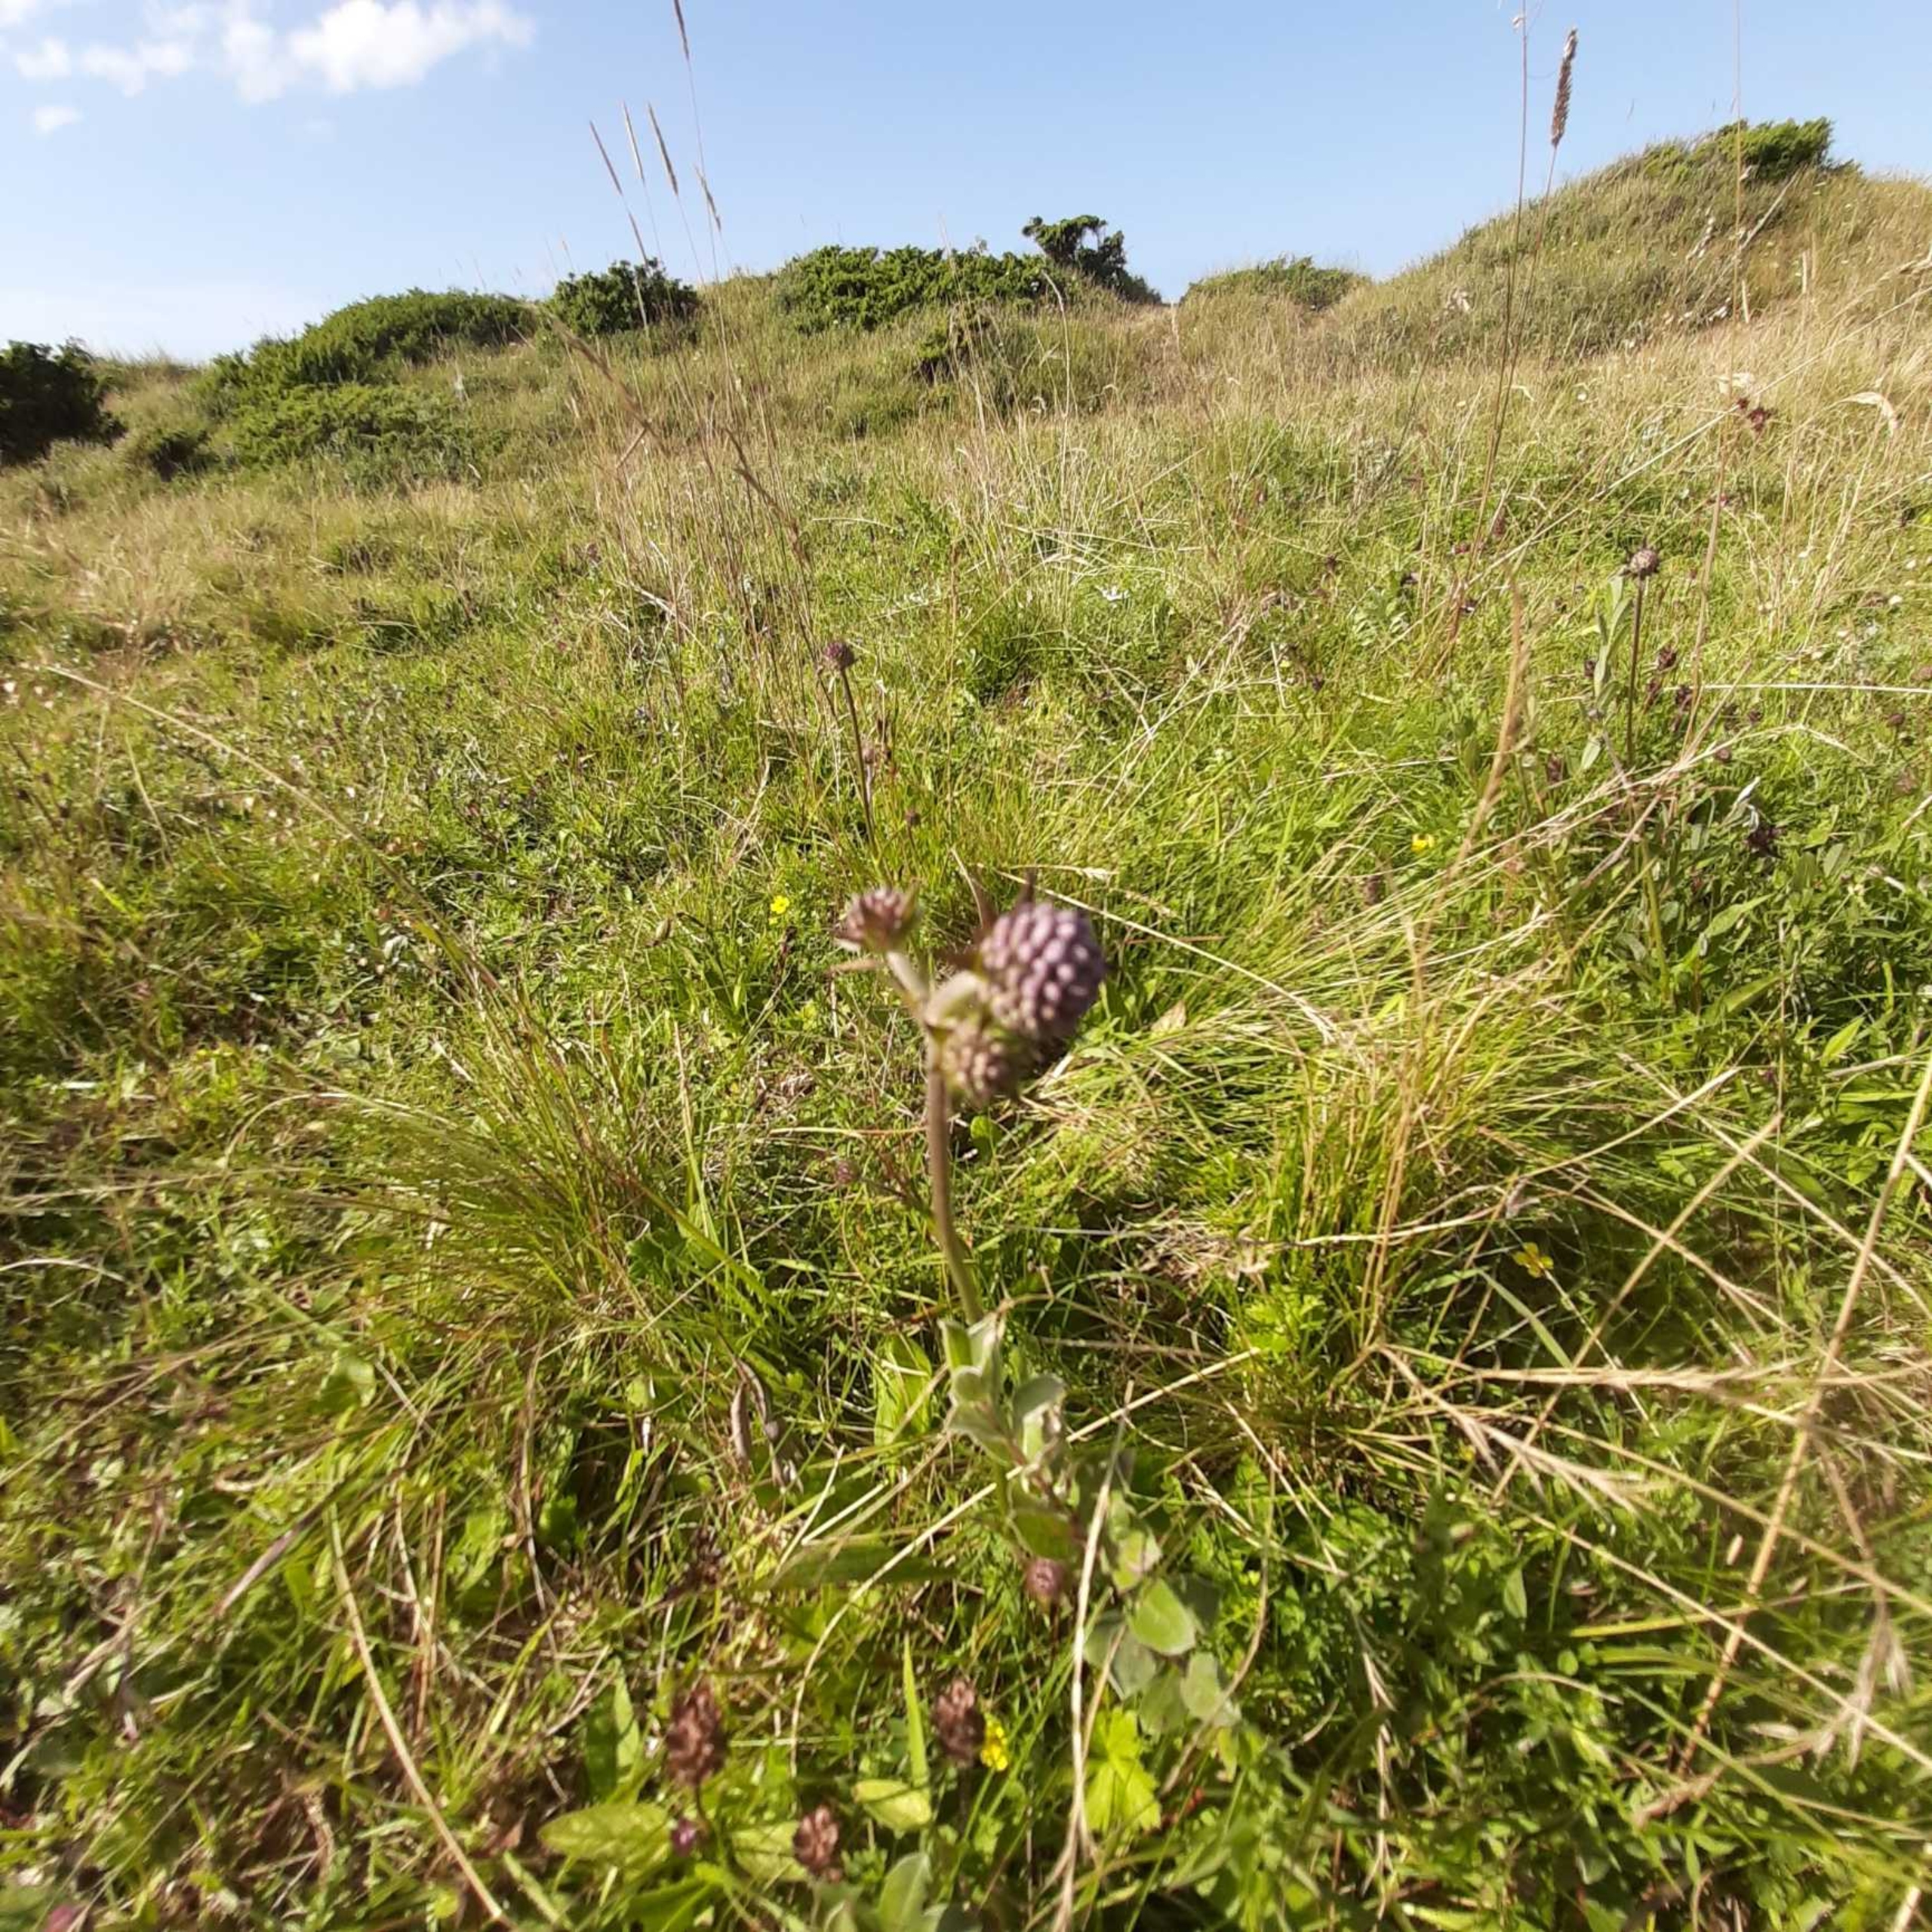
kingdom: Plantae
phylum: Tracheophyta
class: Magnoliopsida
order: Dipsacales
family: Caprifoliaceae
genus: Succisa
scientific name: Succisa pratensis
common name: Djævelsbid
